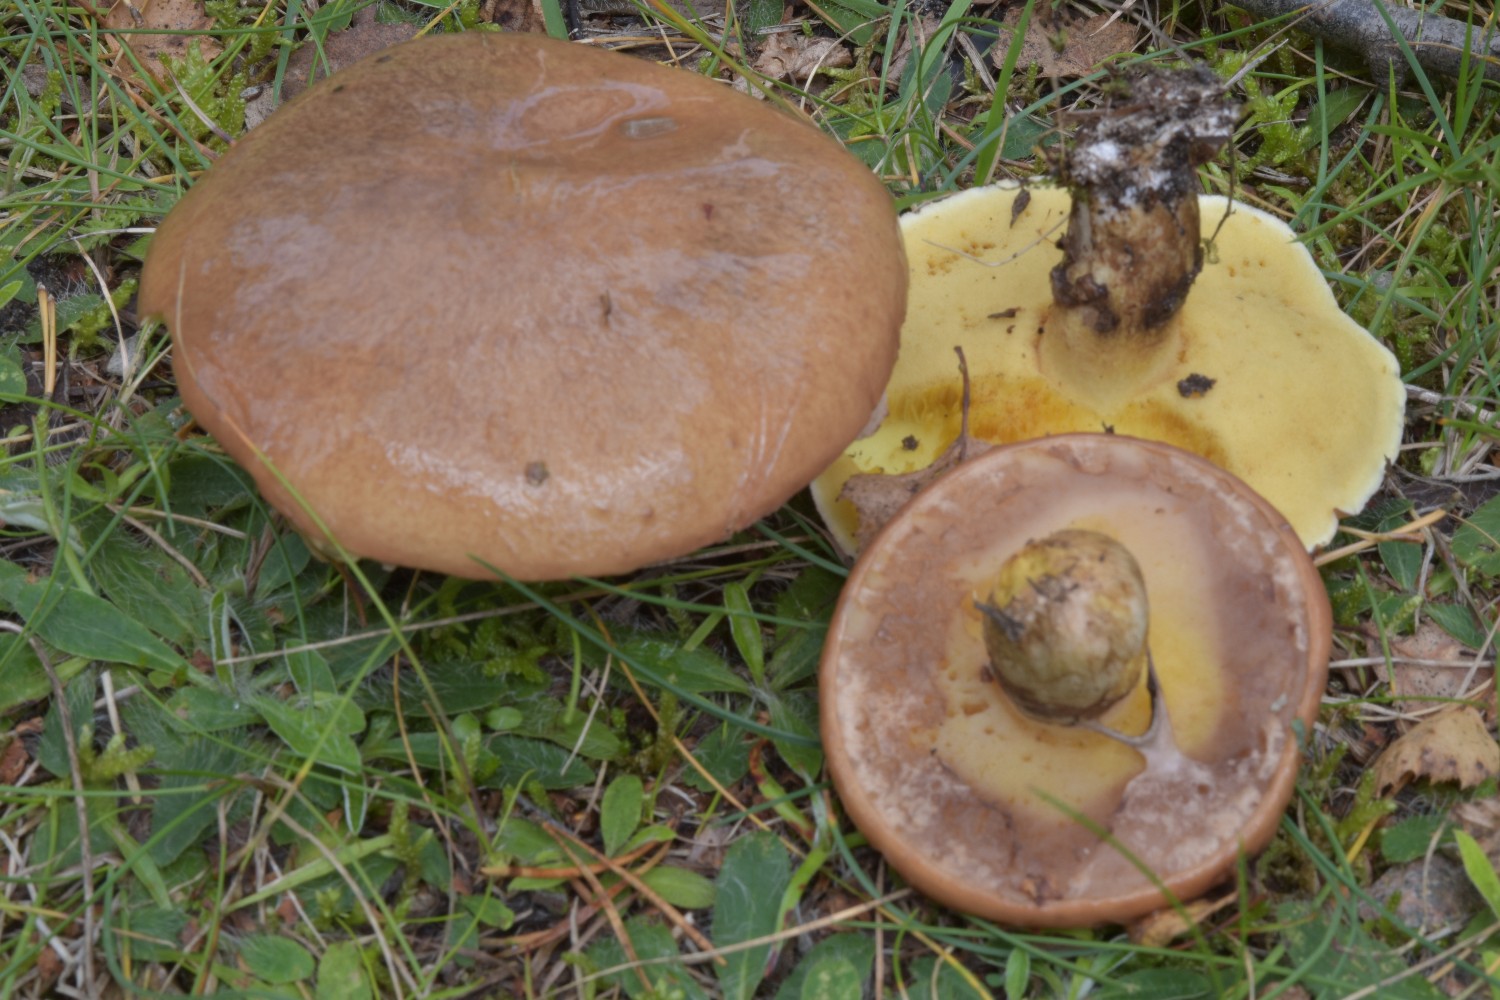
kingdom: Fungi
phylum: Basidiomycota
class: Agaricomycetes
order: Boletales
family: Suillaceae
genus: Suillus
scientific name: Suillus luteus
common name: brungul slimrørhat
